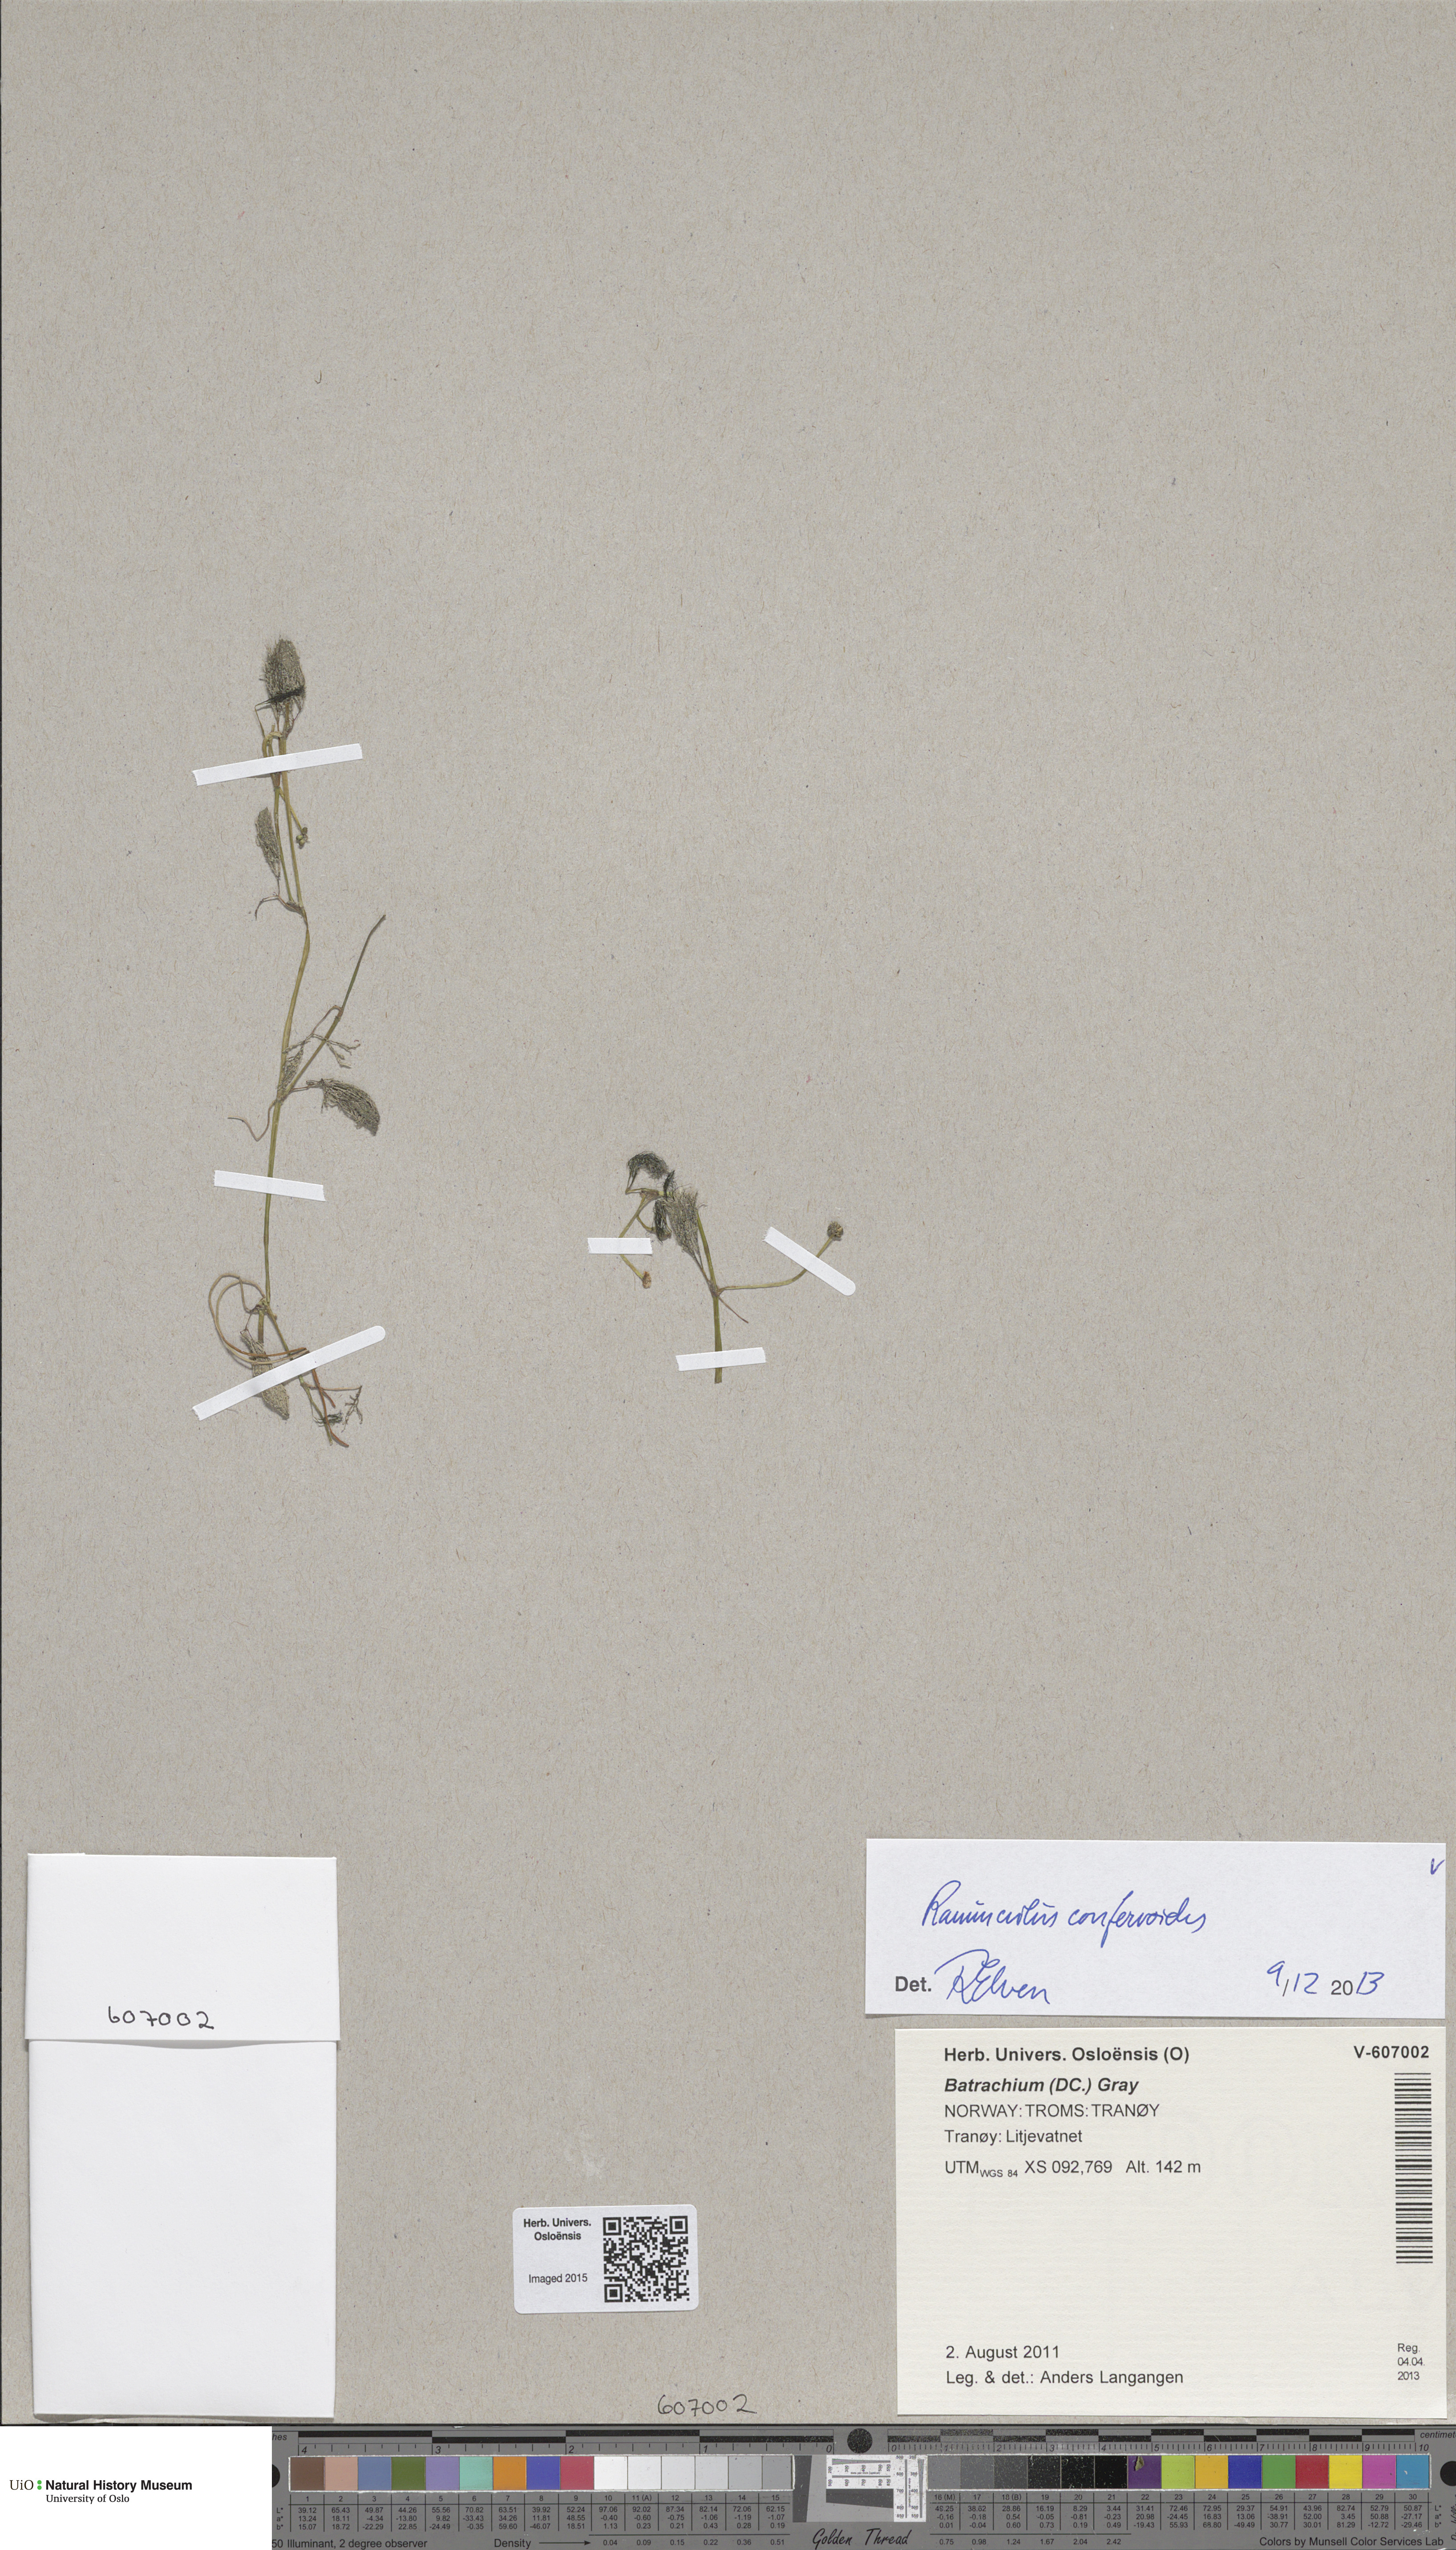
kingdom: Plantae
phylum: Tracheophyta
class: Magnoliopsida
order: Ranunculales
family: Ranunculaceae
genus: Ranunculus
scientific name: Ranunculus confervoides
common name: Delicate buttercup
